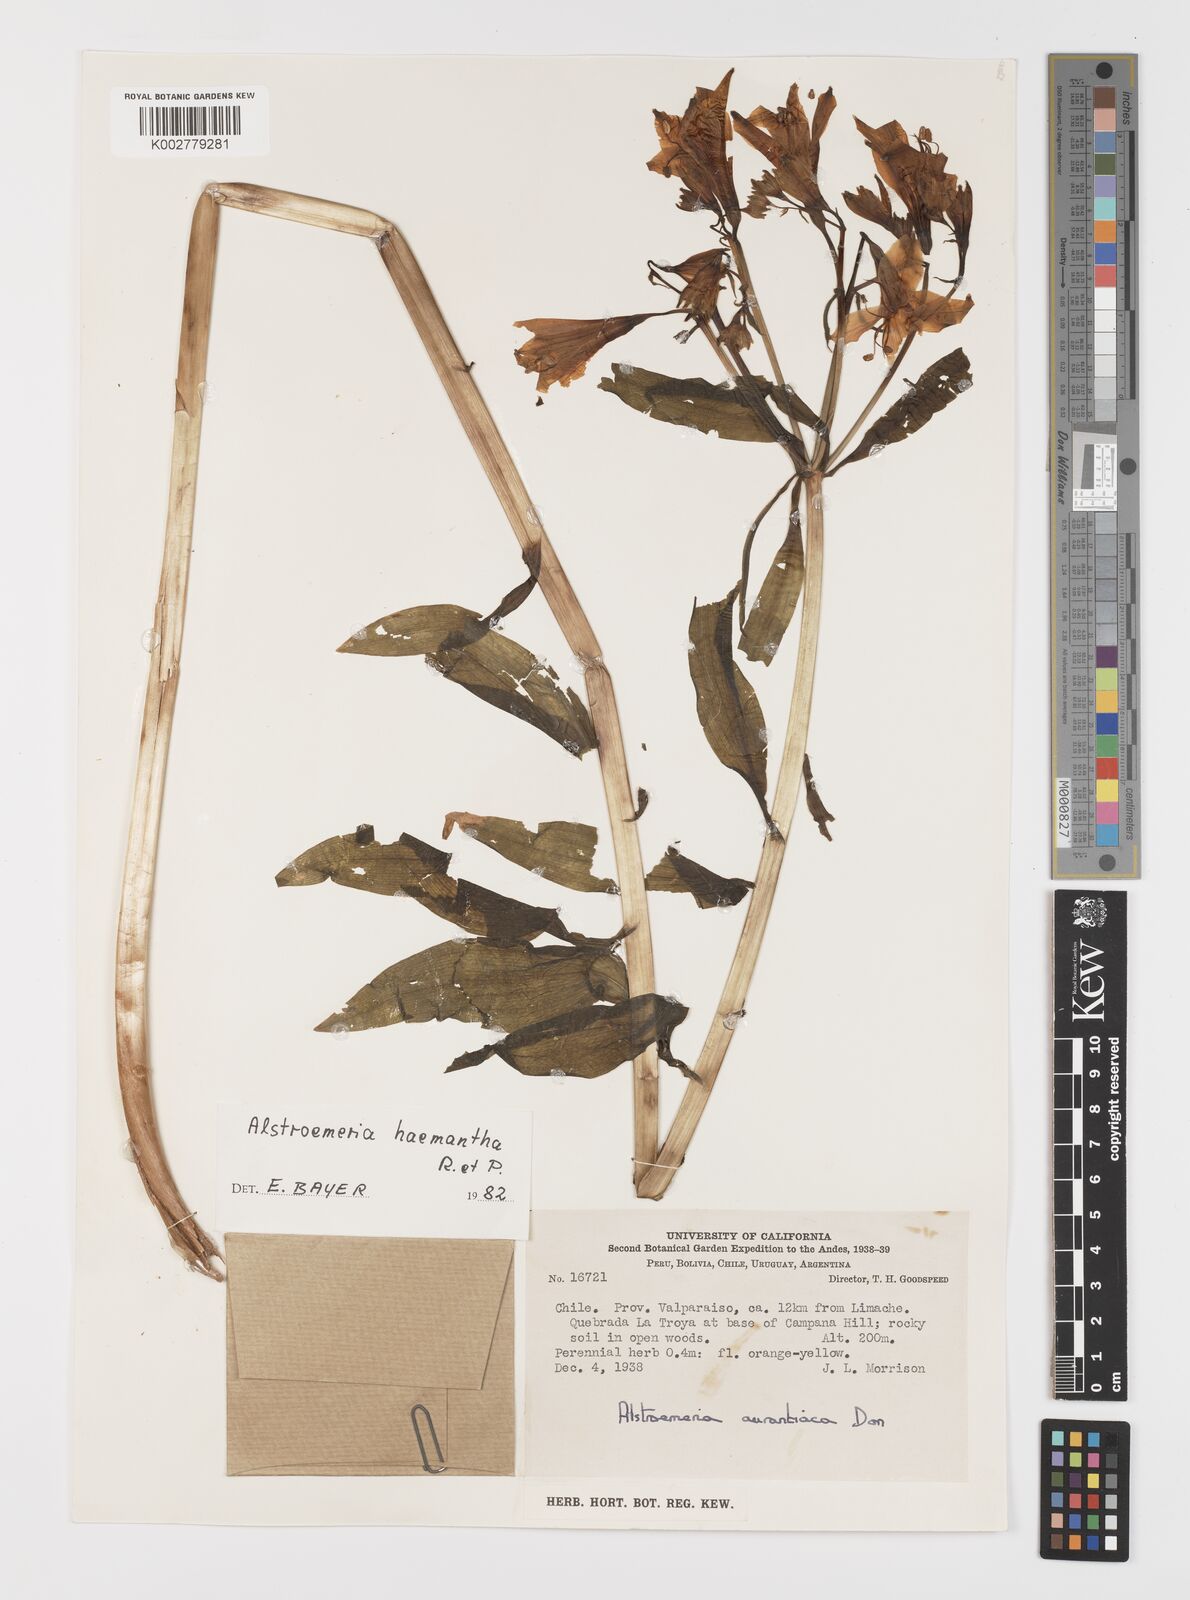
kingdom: Plantae
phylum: Tracheophyta
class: Liliopsida
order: Liliales
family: Alstroemeriaceae
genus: Alstroemeria
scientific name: Alstroemeria ligtu
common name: St. martin's-flower
